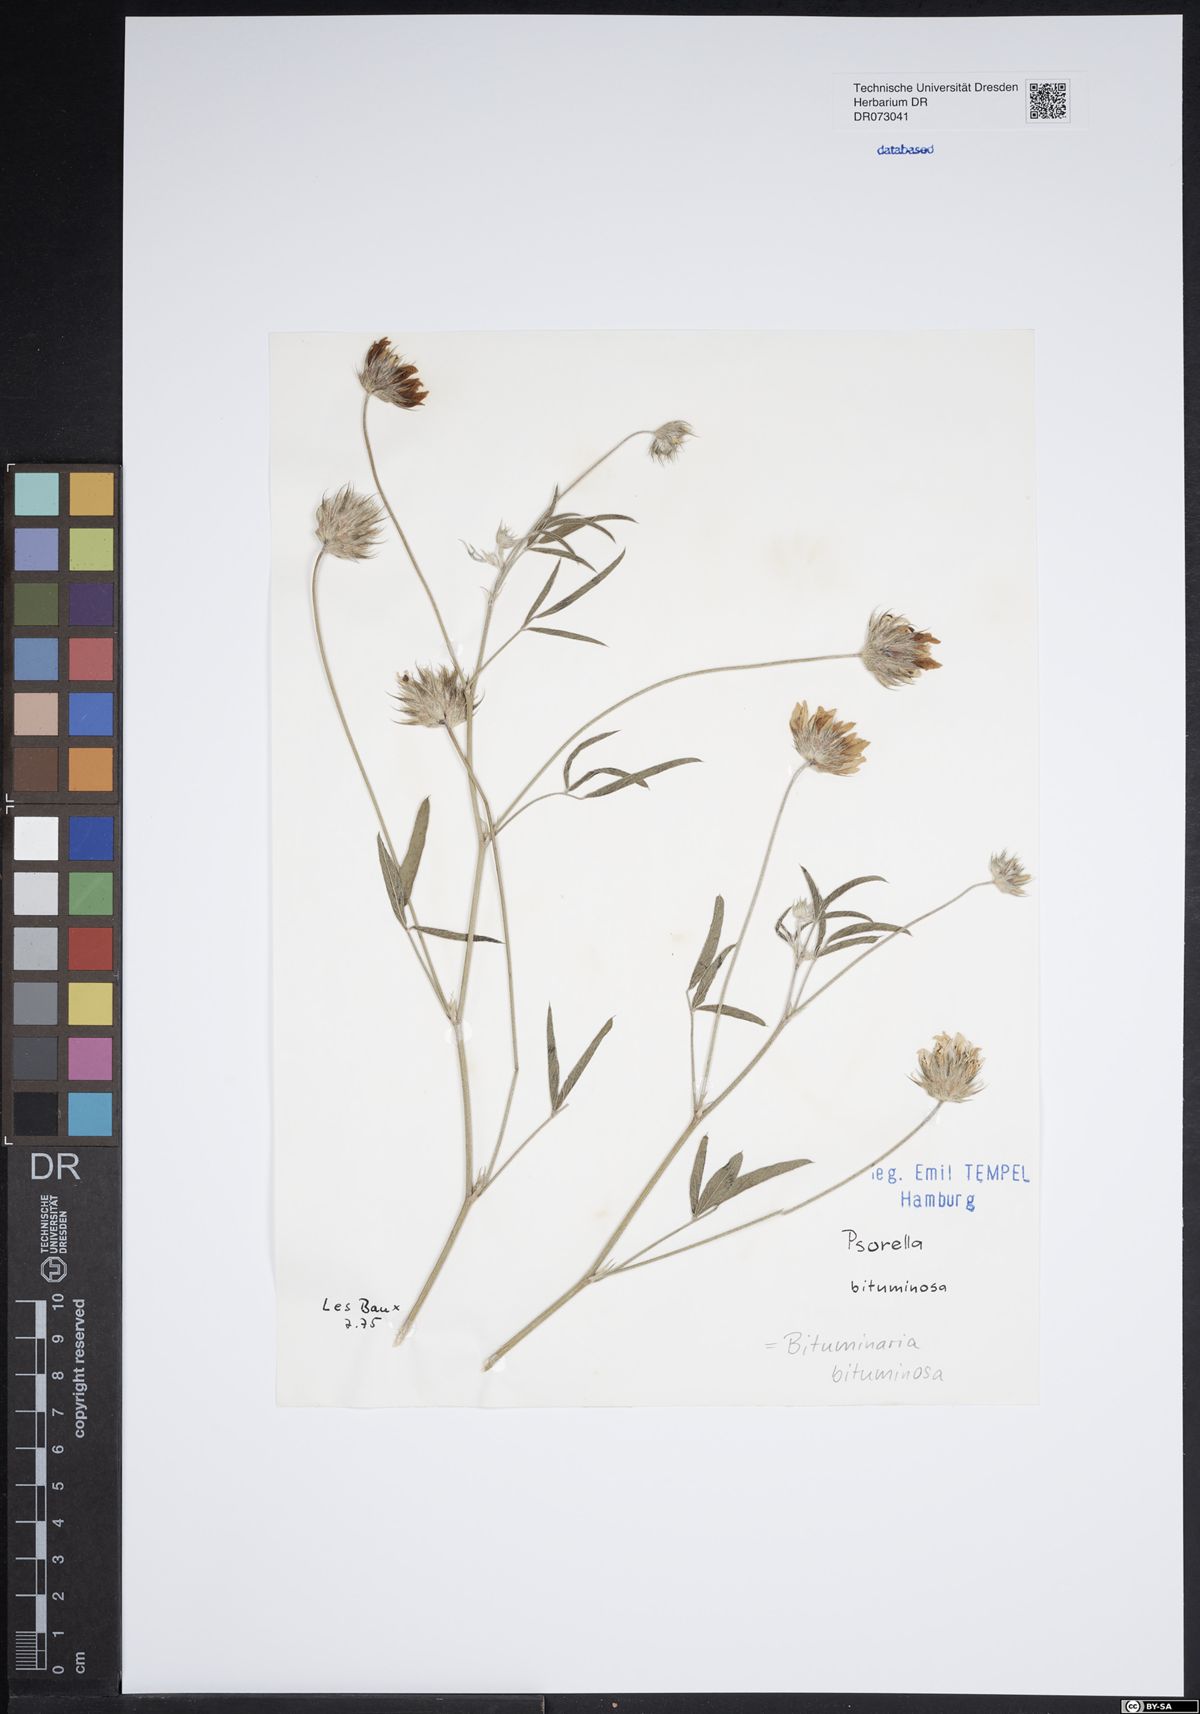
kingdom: Plantae
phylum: Tracheophyta
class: Magnoliopsida
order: Fabales
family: Fabaceae
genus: Erophaca
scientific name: Erophaca baetica
